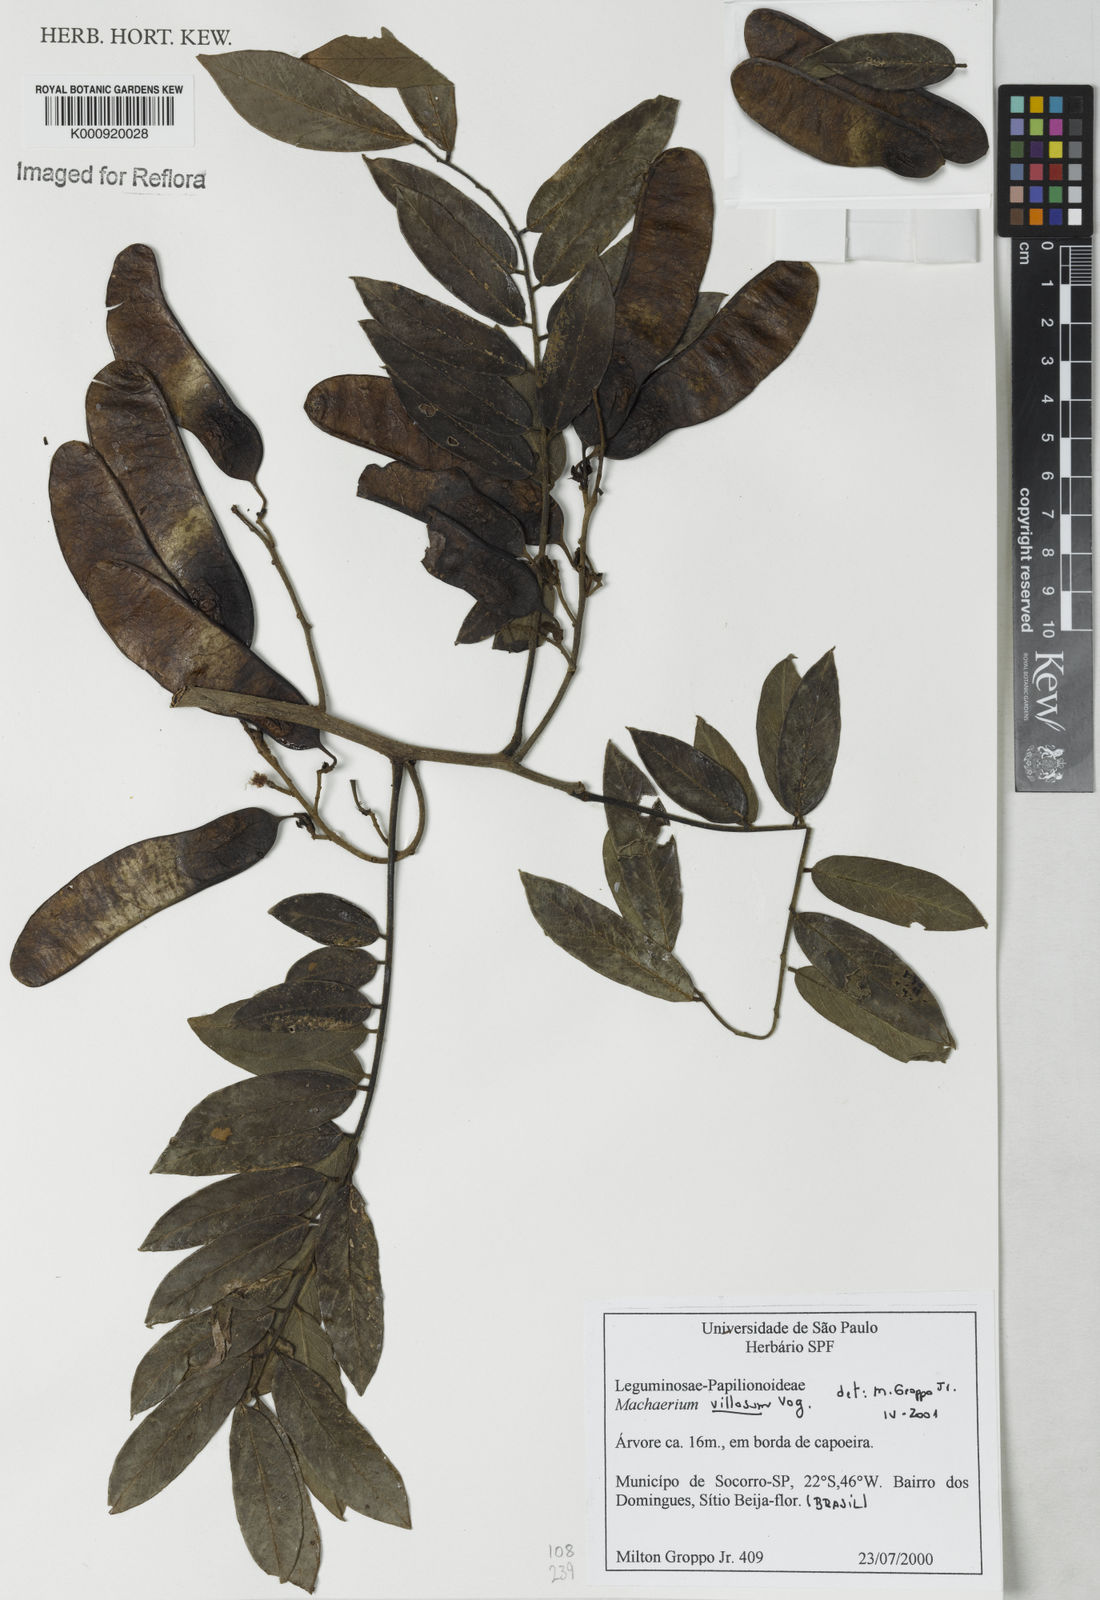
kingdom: Plantae
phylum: Tracheophyta
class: Magnoliopsida
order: Fabales
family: Fabaceae
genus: Machaerium
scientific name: Machaerium villosum
